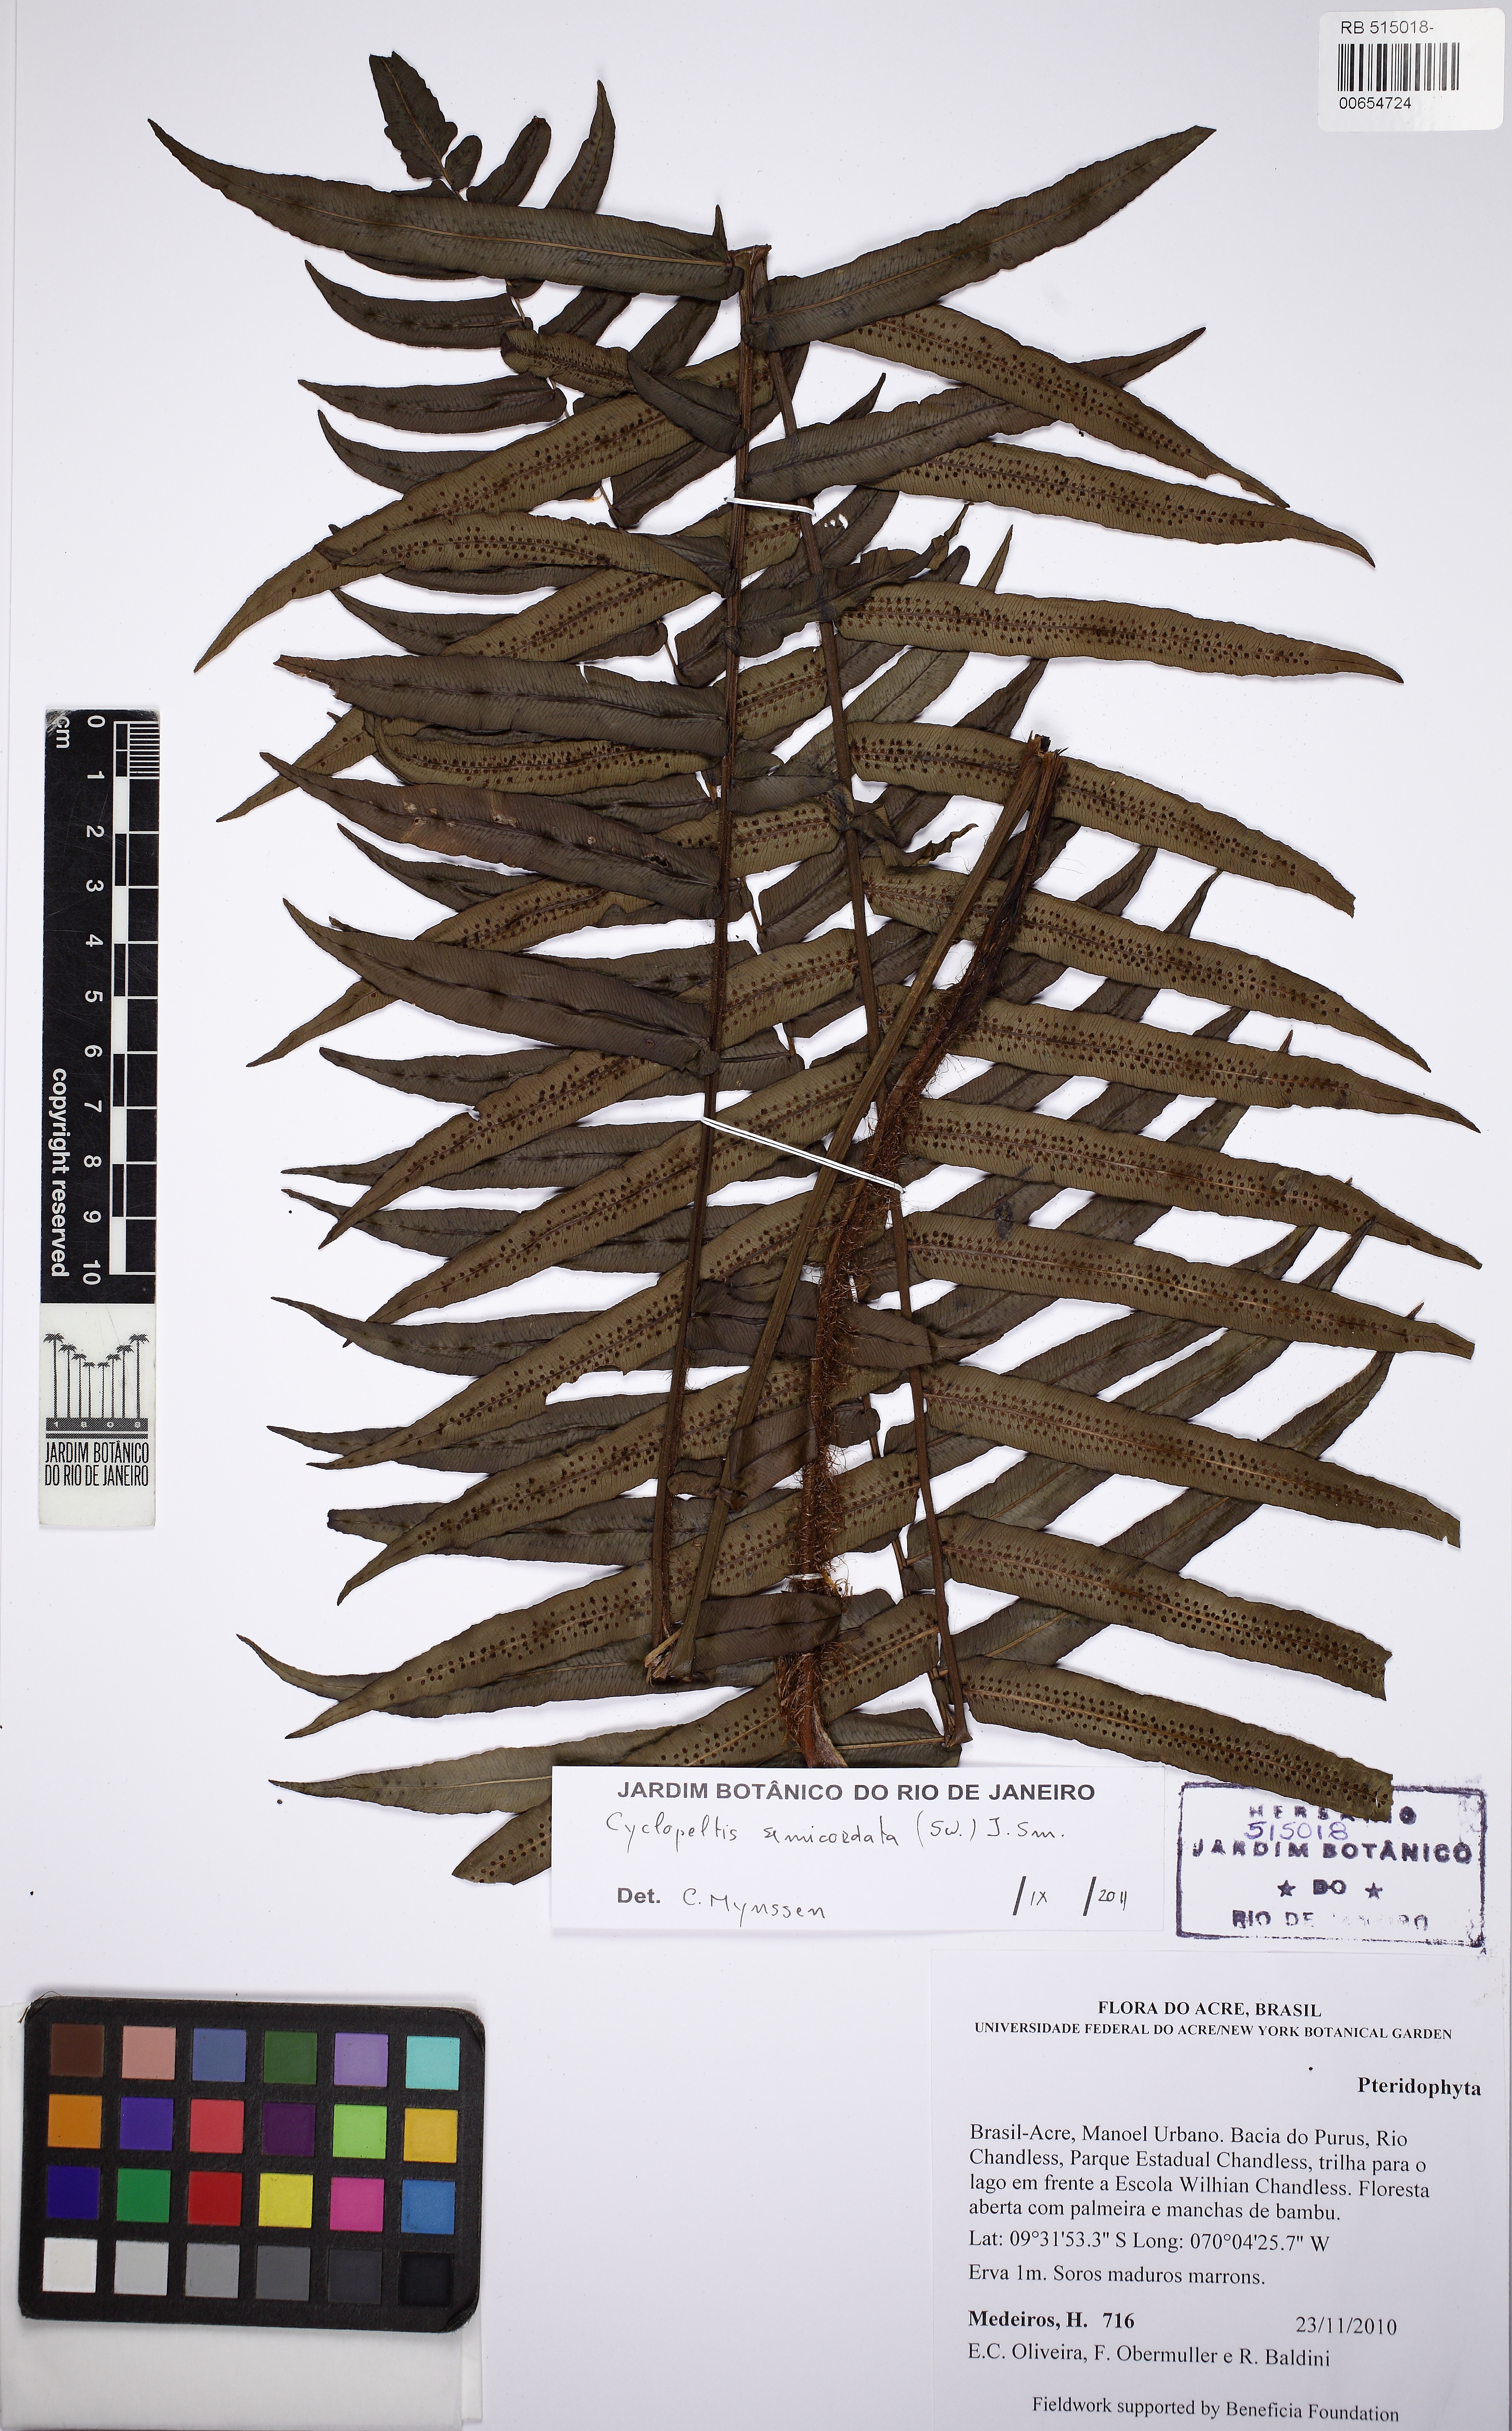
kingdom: Plantae
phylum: Tracheophyta
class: Polypodiopsida
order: Polypodiales
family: Lomariopsidaceae
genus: Cyclopeltis
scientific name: Cyclopeltis semicordata
